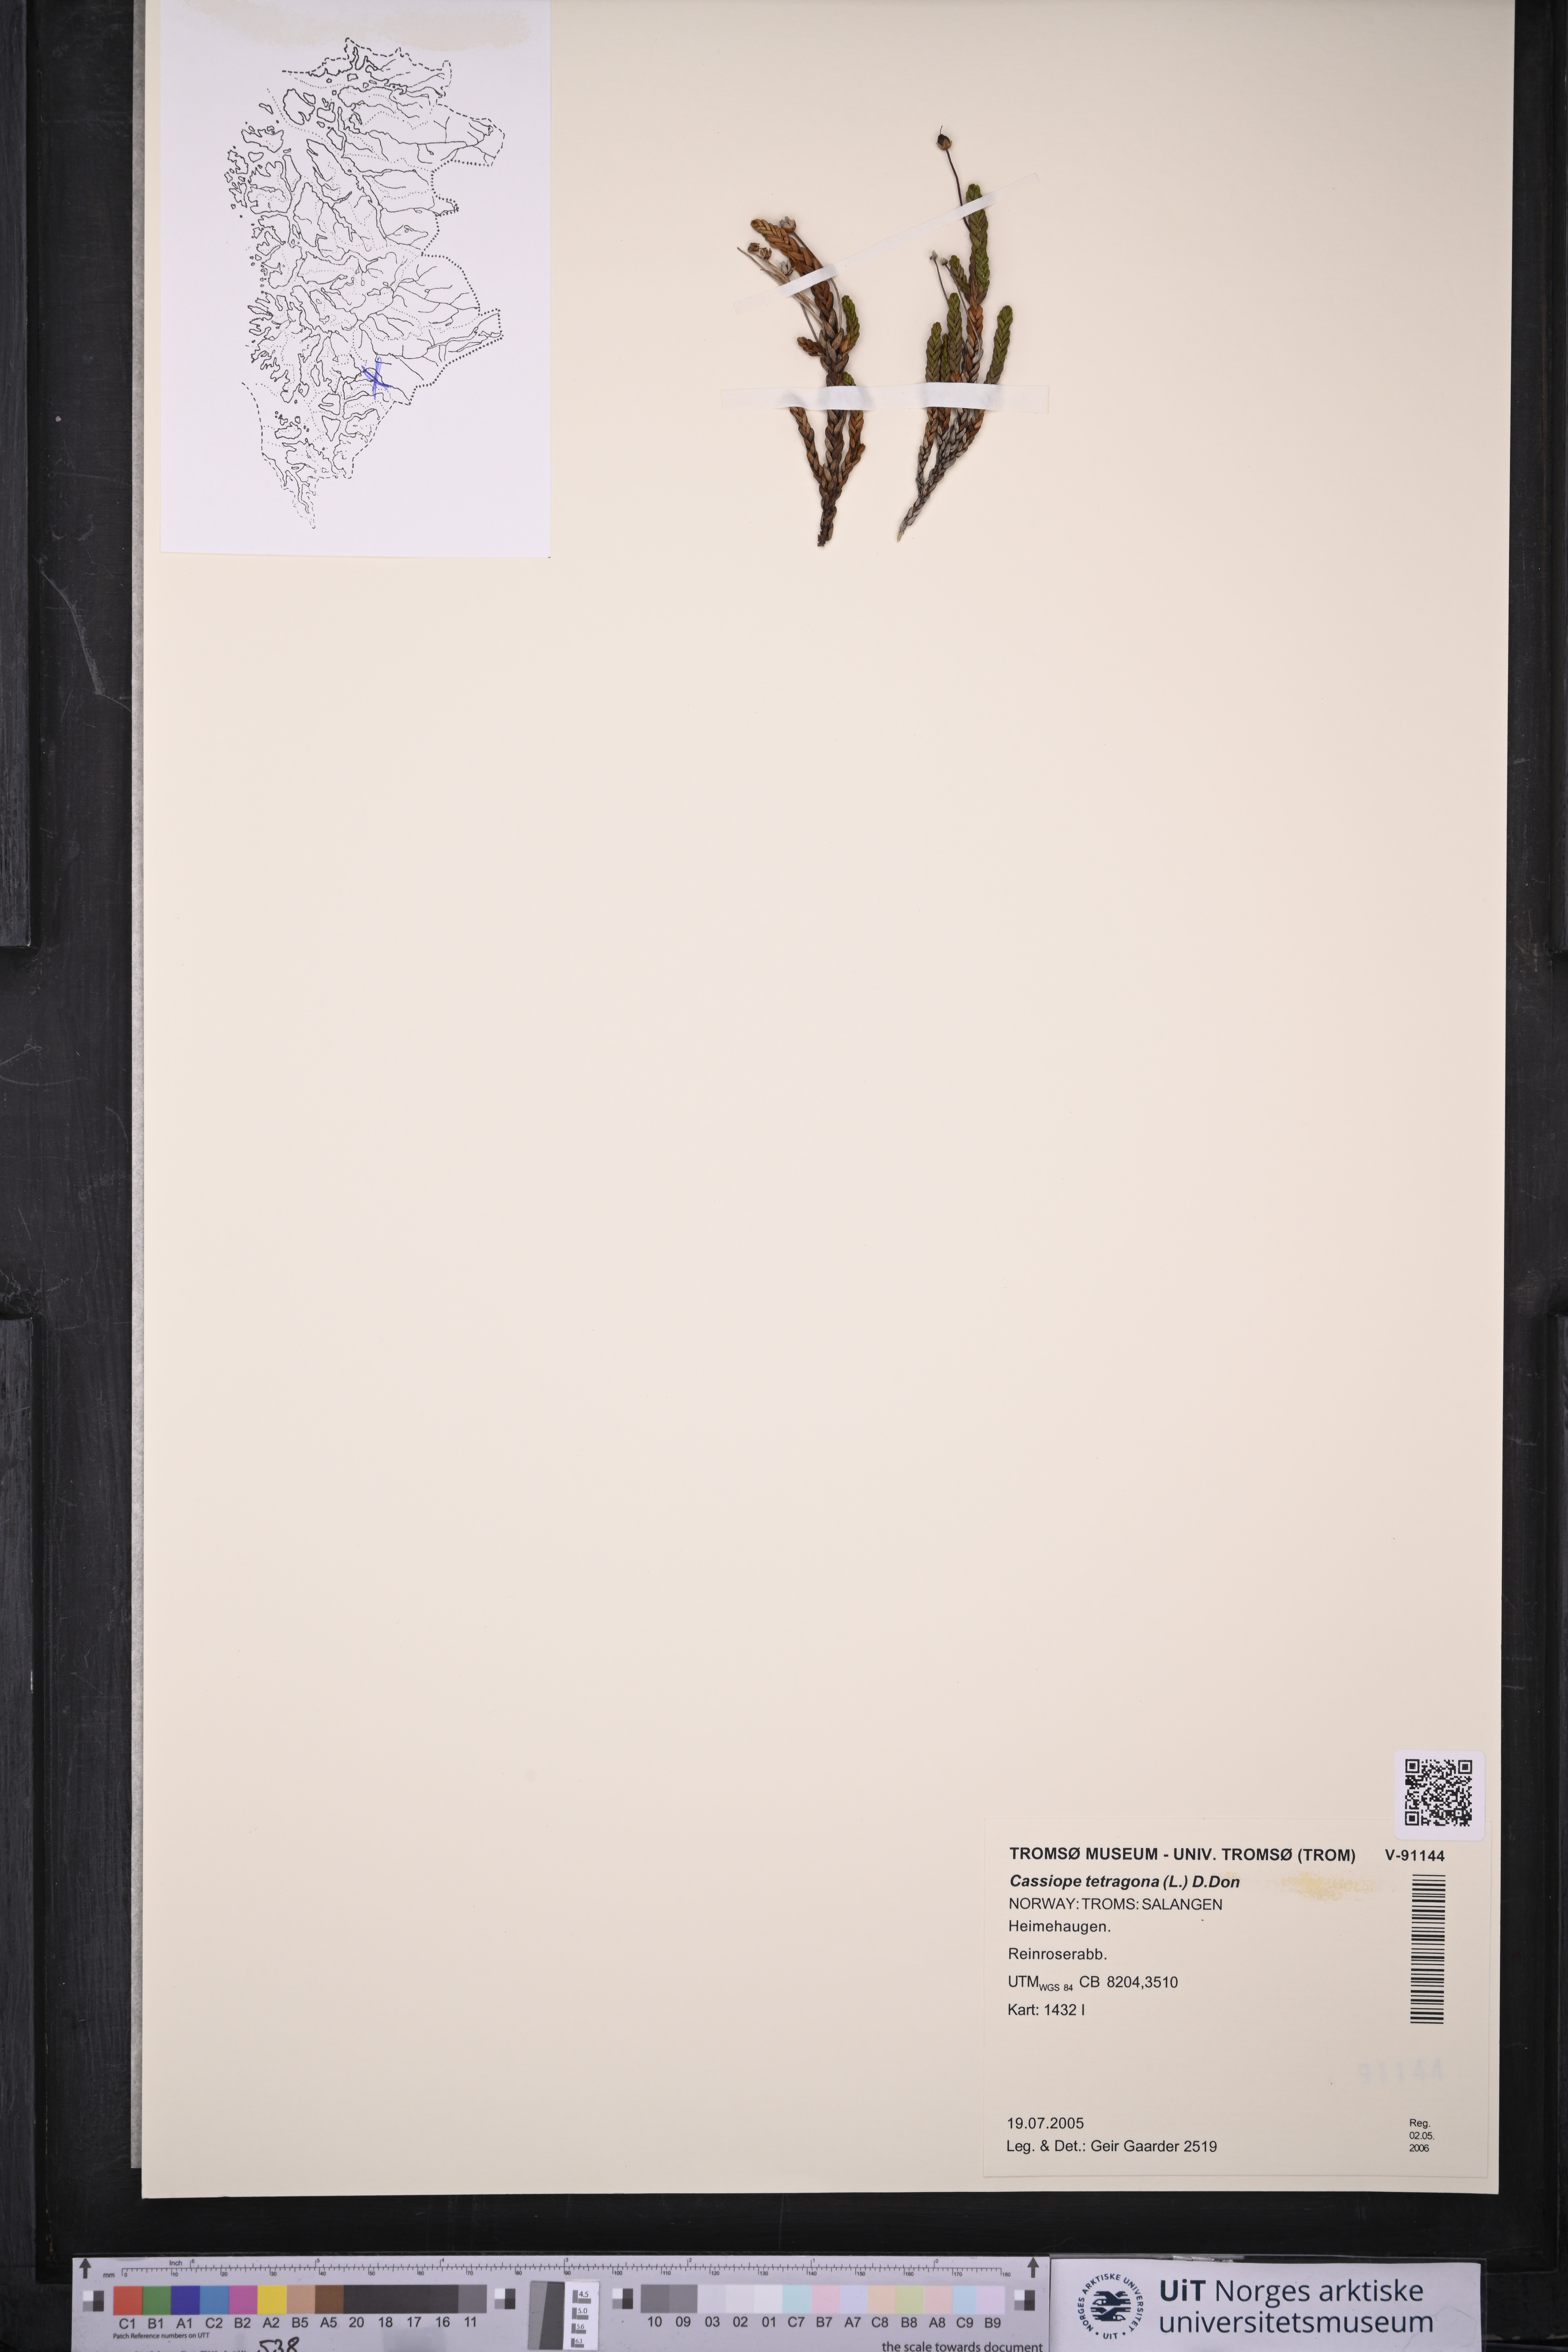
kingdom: Plantae
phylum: Tracheophyta
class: Magnoliopsida
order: Ericales
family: Ericaceae
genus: Cassiope
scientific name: Cassiope tetragona
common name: Arctic bell heather
